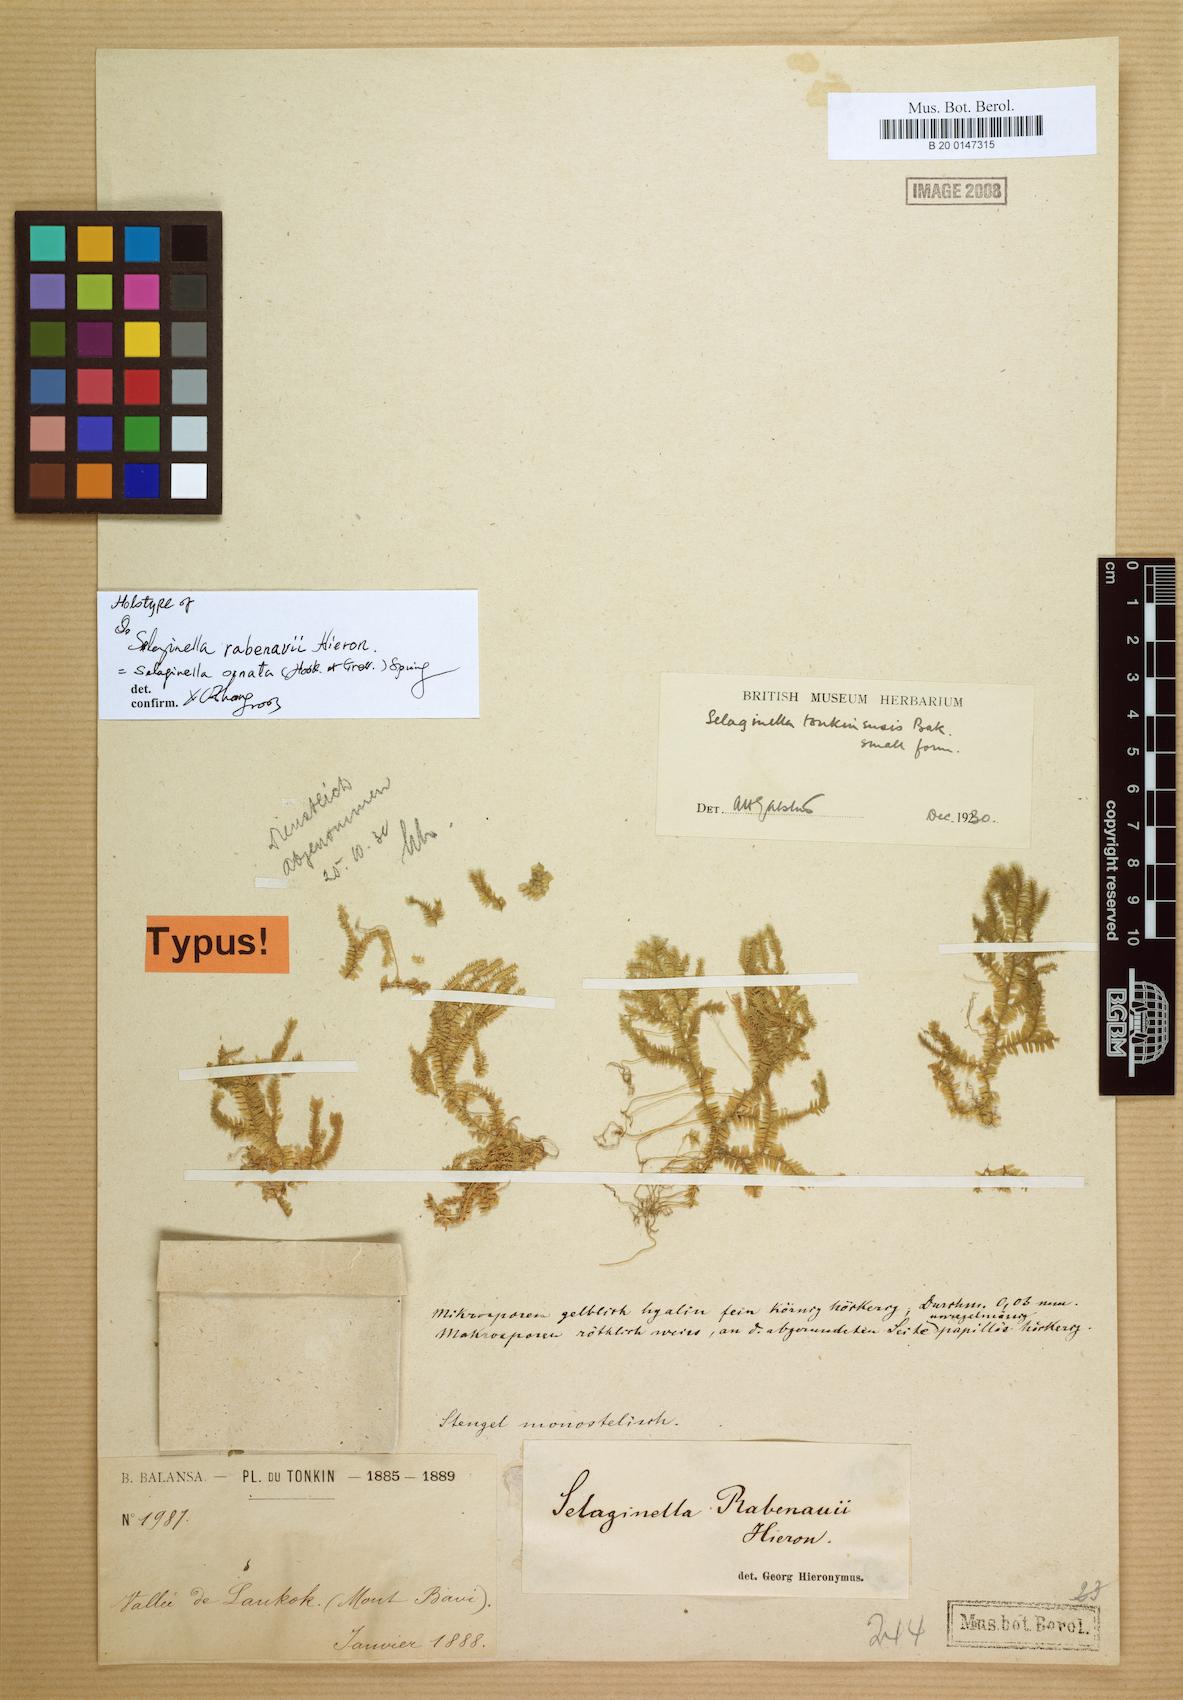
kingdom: Plantae
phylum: Tracheophyta
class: Lycopodiopsida
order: Selaginellales
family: Selaginellaceae
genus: Selaginella
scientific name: Selaginella ornata
